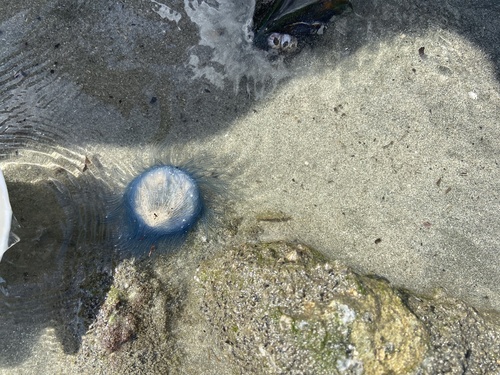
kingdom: Animalia
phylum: Cnidaria
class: Hydrozoa
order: Anthoathecata
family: Porpitidae
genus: Porpita
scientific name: Porpita porpita
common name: Blue Button
